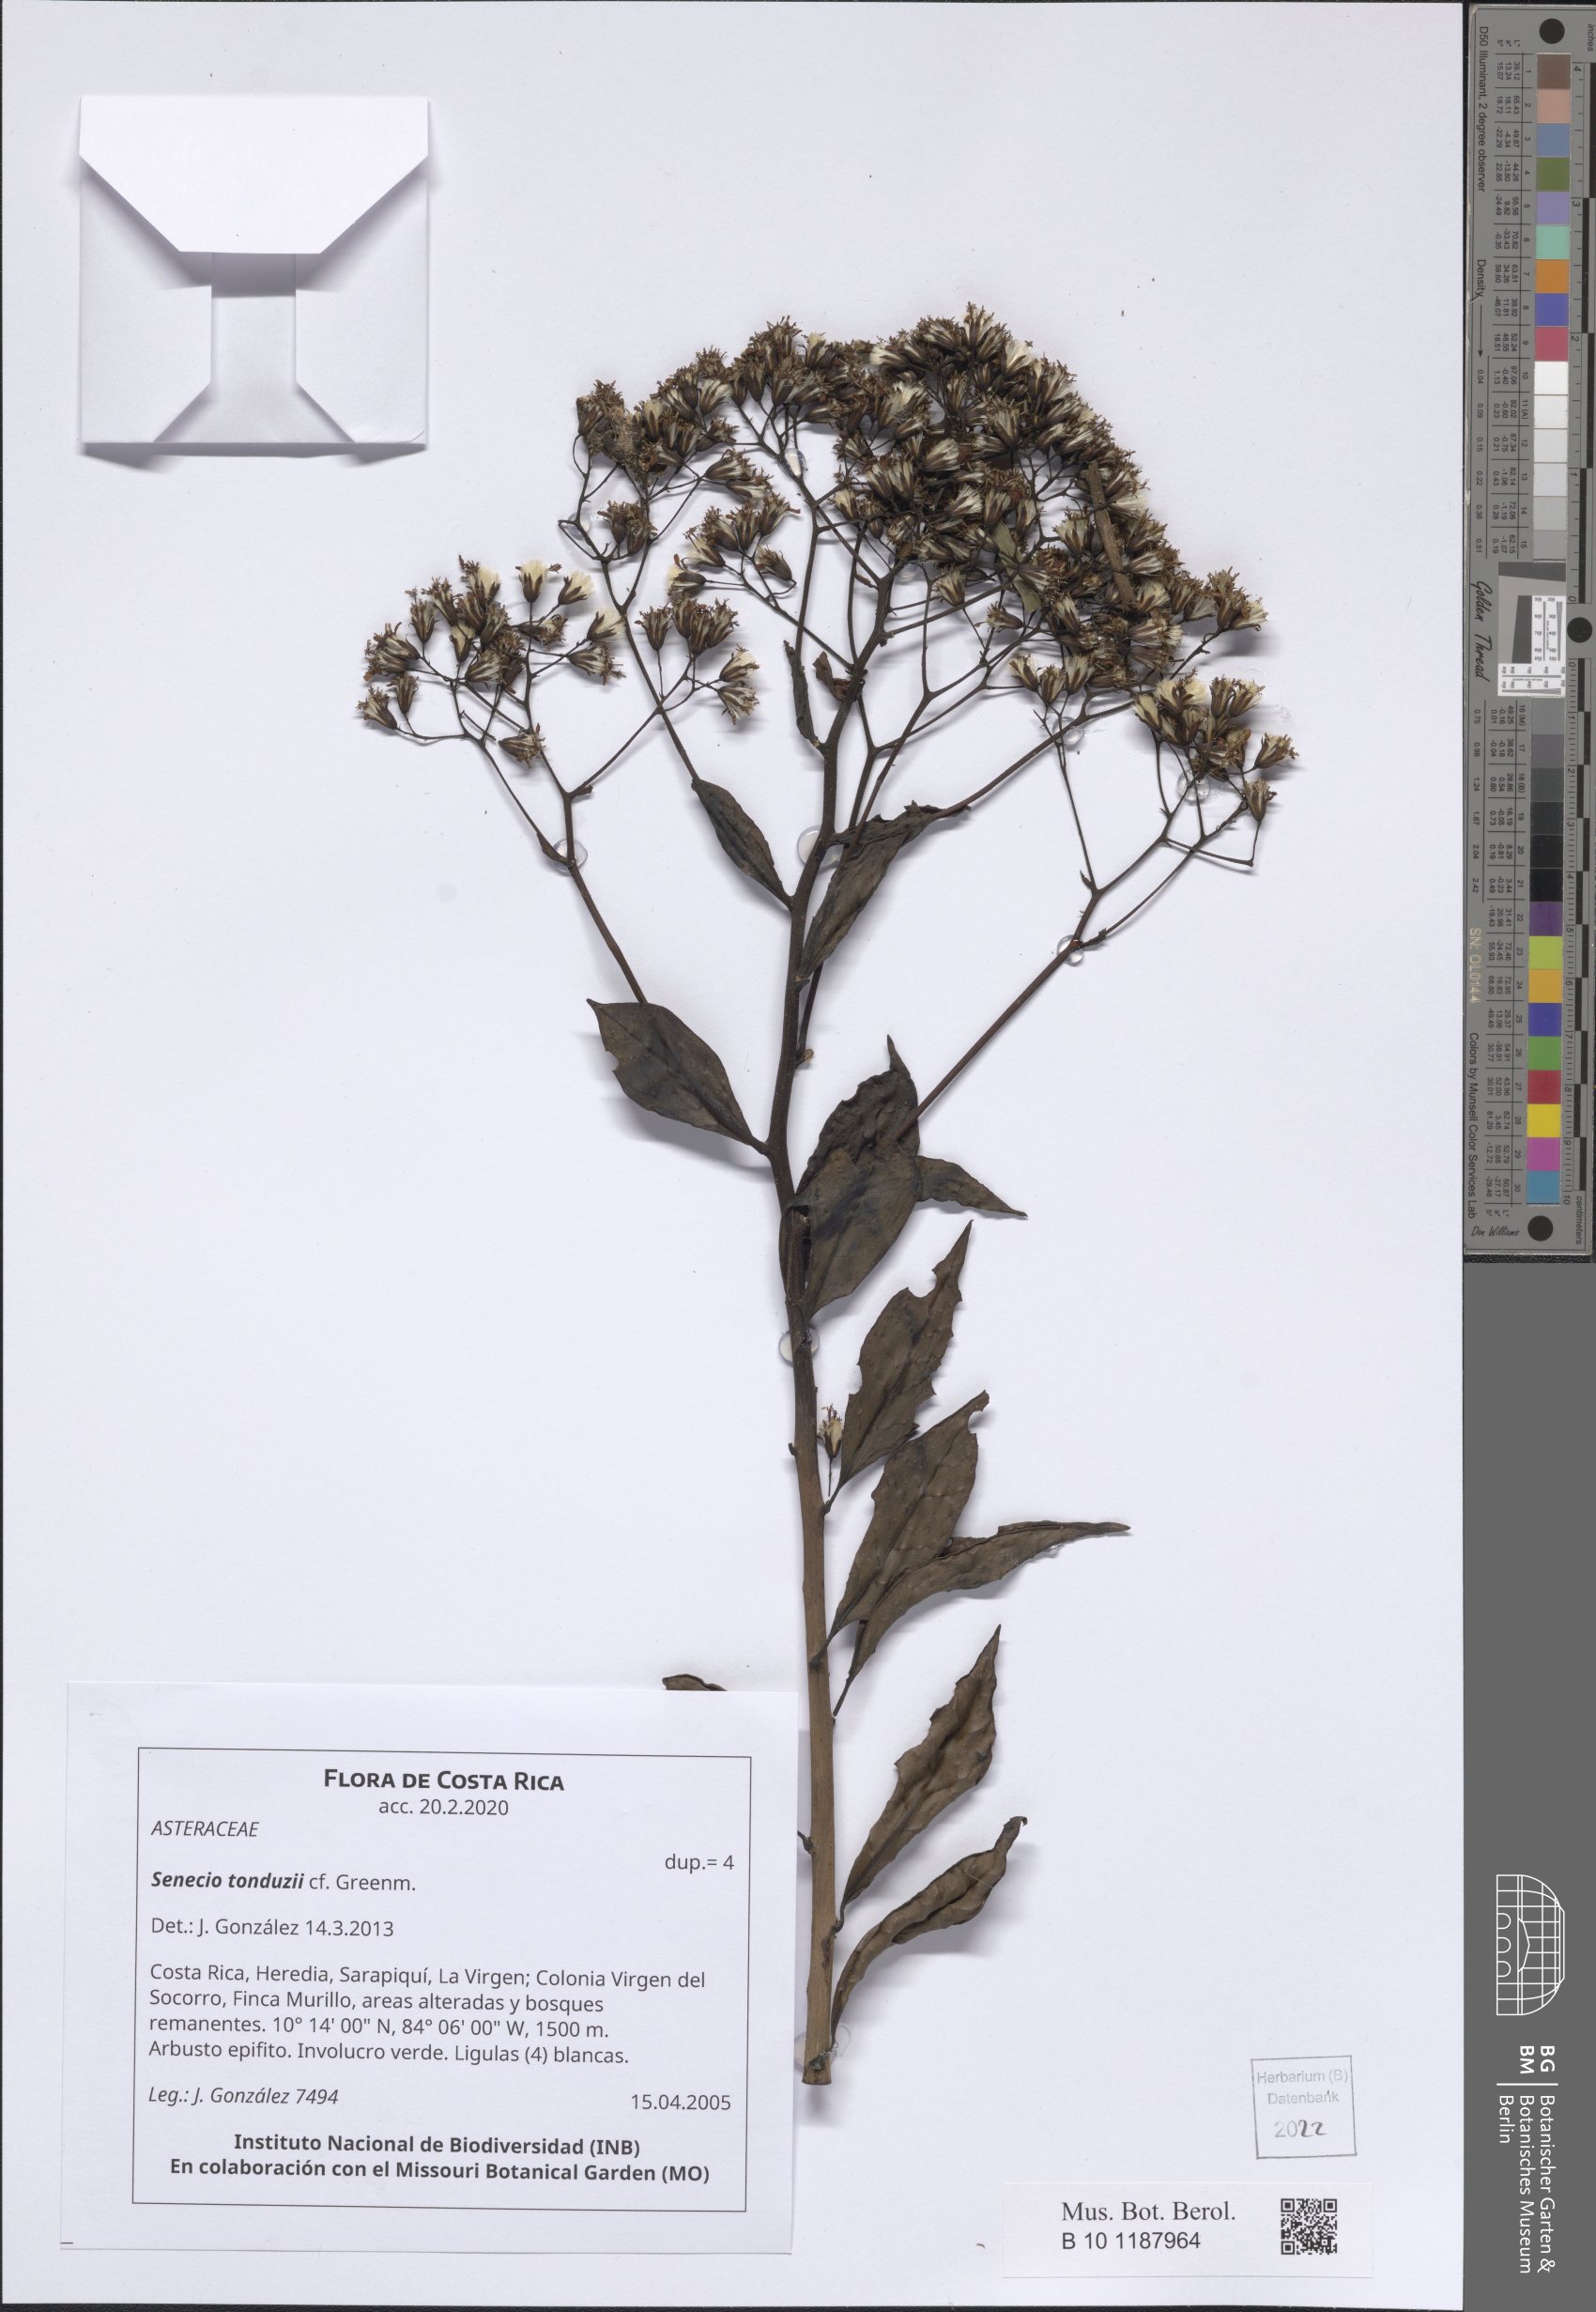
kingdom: Plantae
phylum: Tracheophyta
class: Magnoliopsida
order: Asterales
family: Asteraceae
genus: Pentacalia
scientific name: Pentacalia tonduzii
